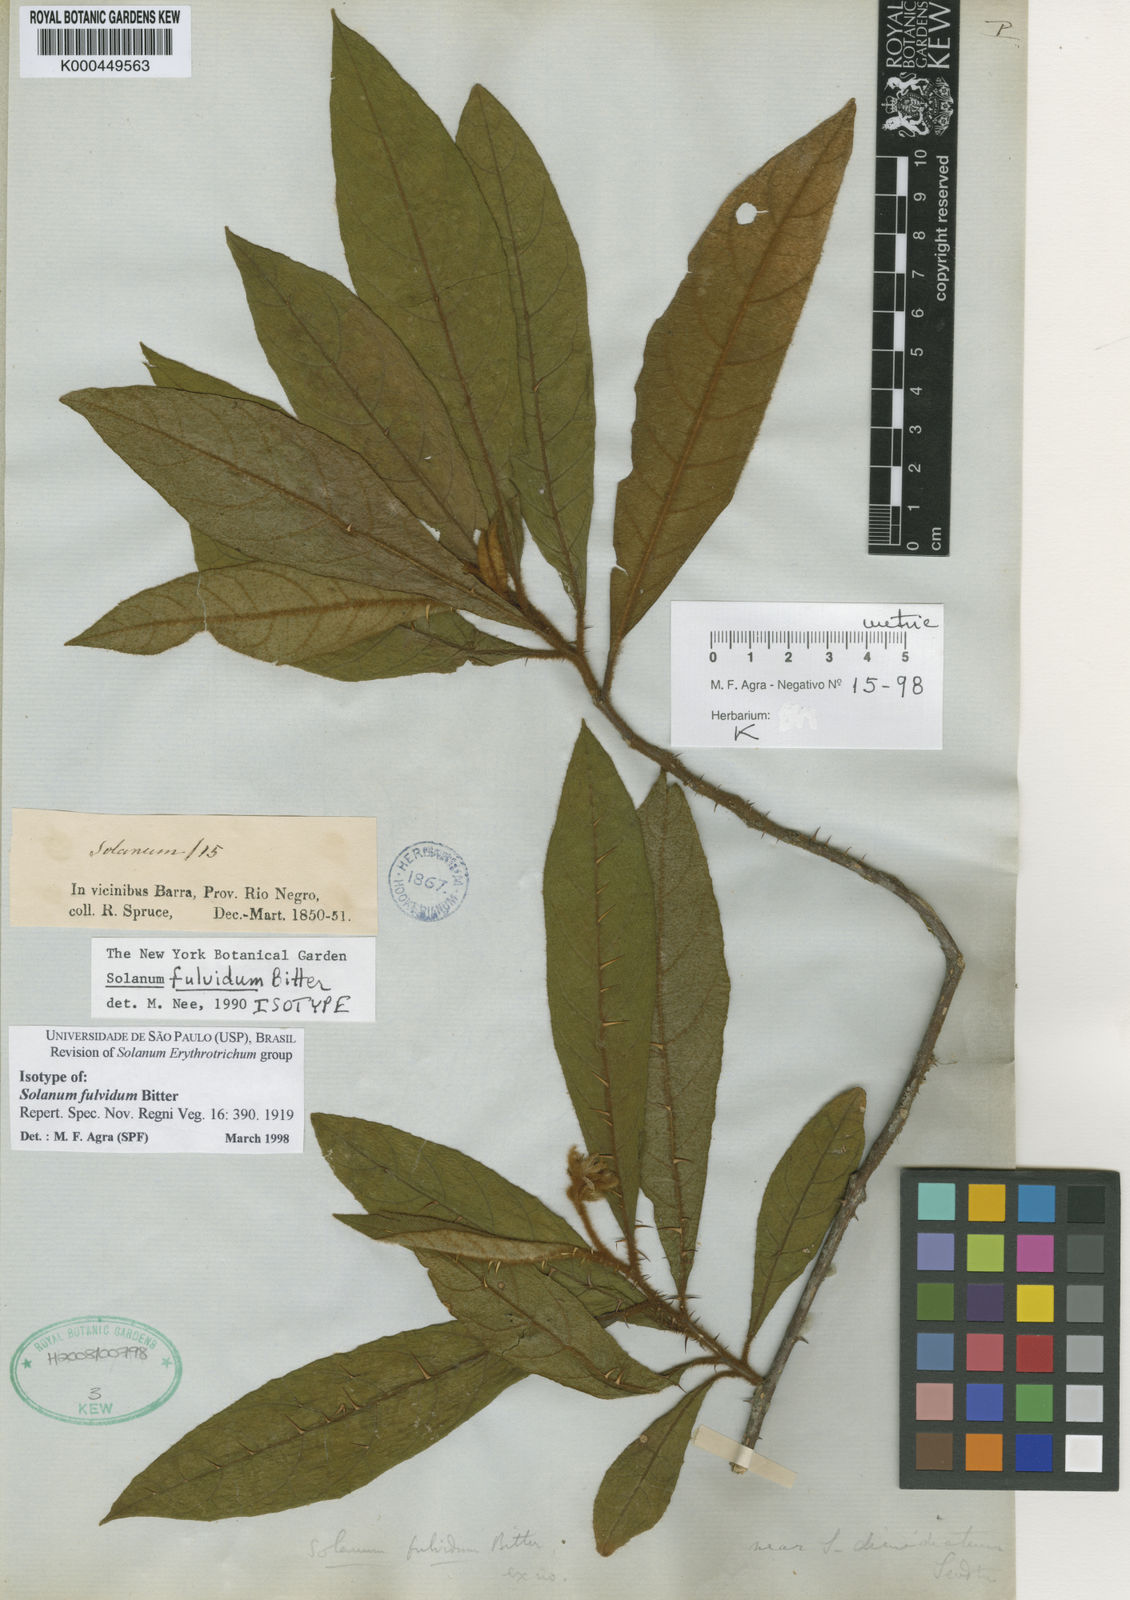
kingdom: Plantae
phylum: Tracheophyta
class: Magnoliopsida
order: Solanales
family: Solanaceae
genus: Solanum
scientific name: Solanum fulvidum
